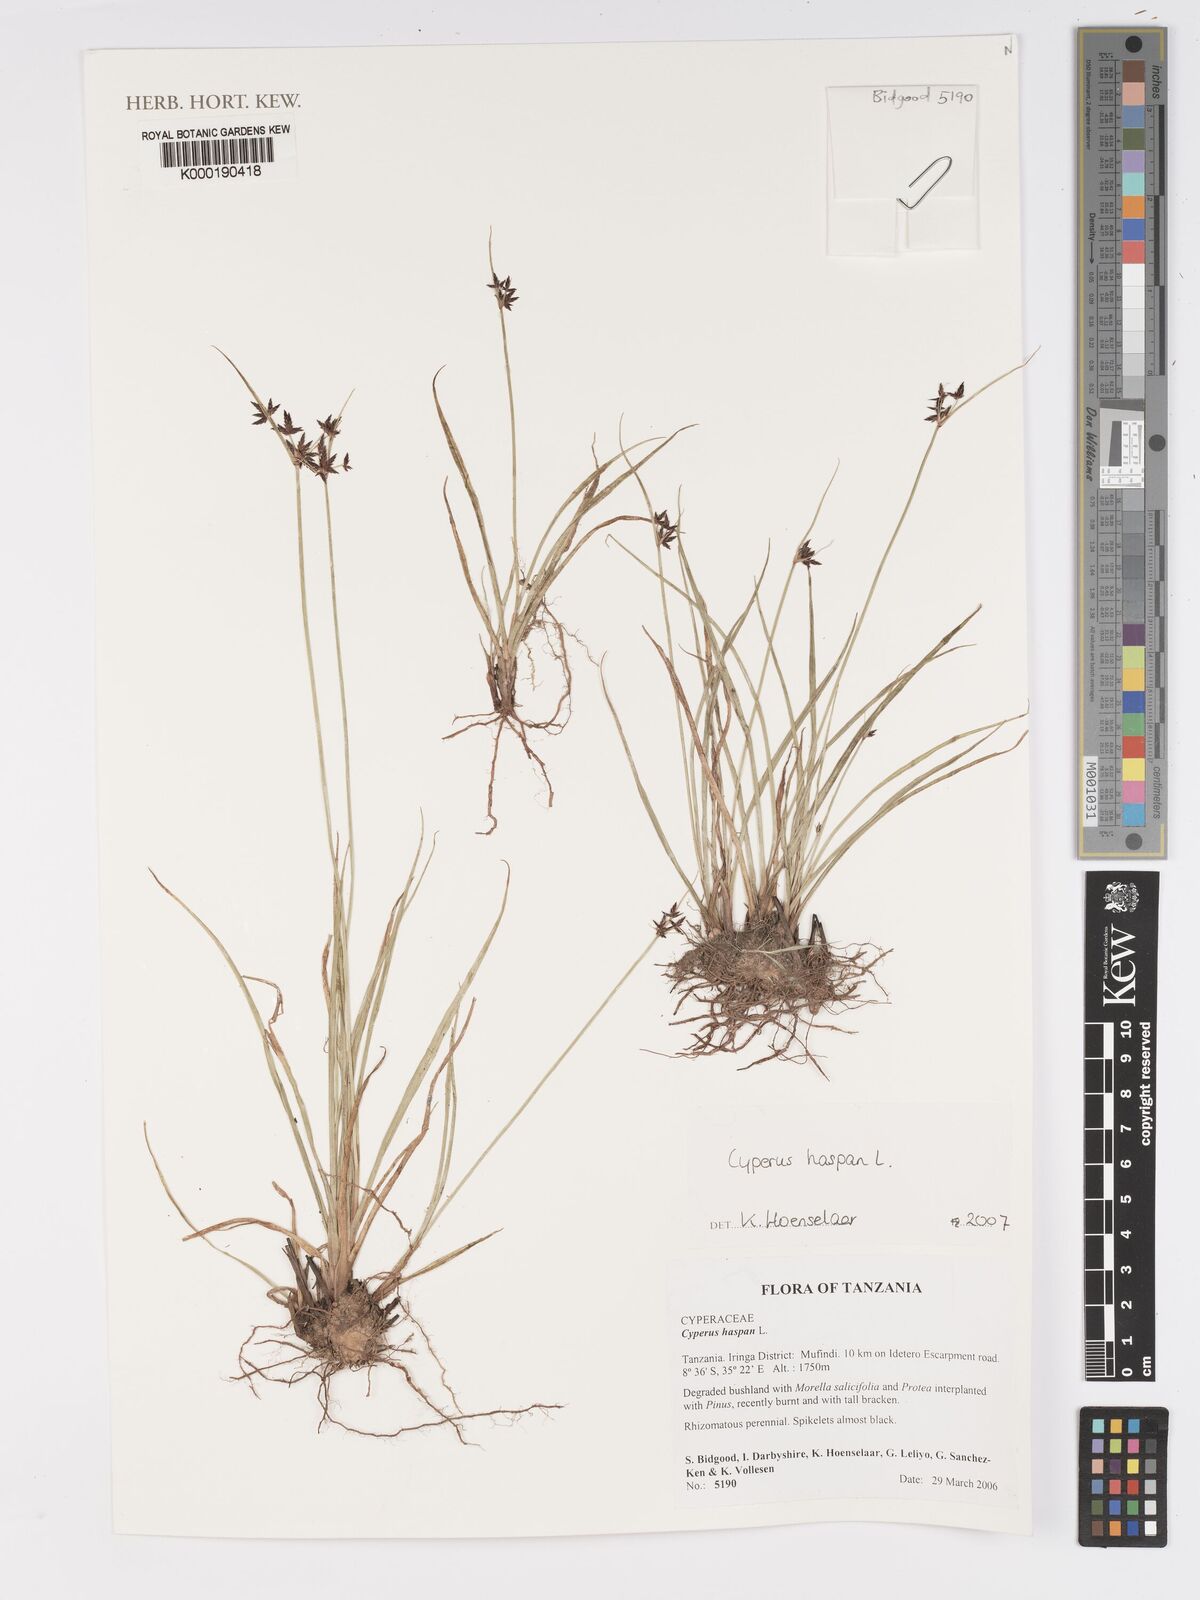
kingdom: Plantae
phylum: Tracheophyta
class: Liliopsida
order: Poales
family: Cyperaceae
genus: Cyperus
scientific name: Cyperus haspan
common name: Haspan flatsedge
